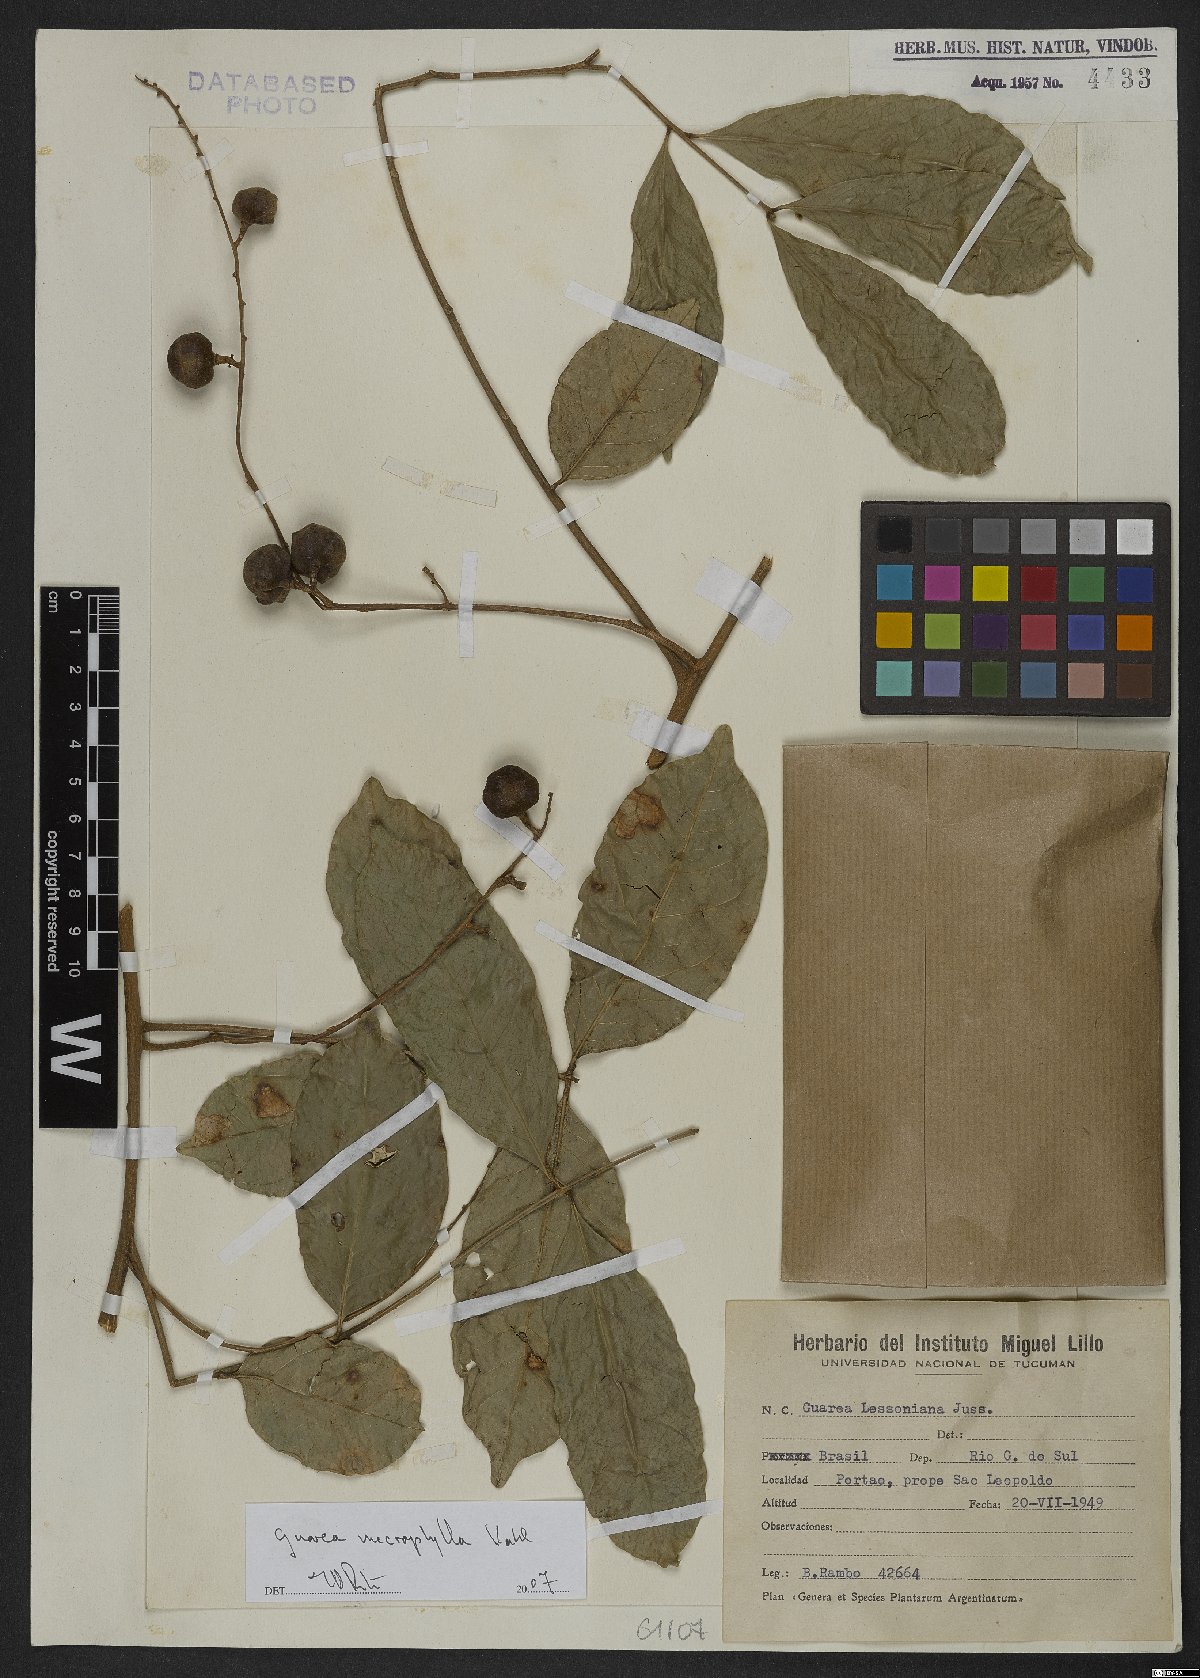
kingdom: Plantae
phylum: Tracheophyta
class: Magnoliopsida
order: Sapindales
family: Meliaceae
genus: Guarea
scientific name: Guarea macrophylla
